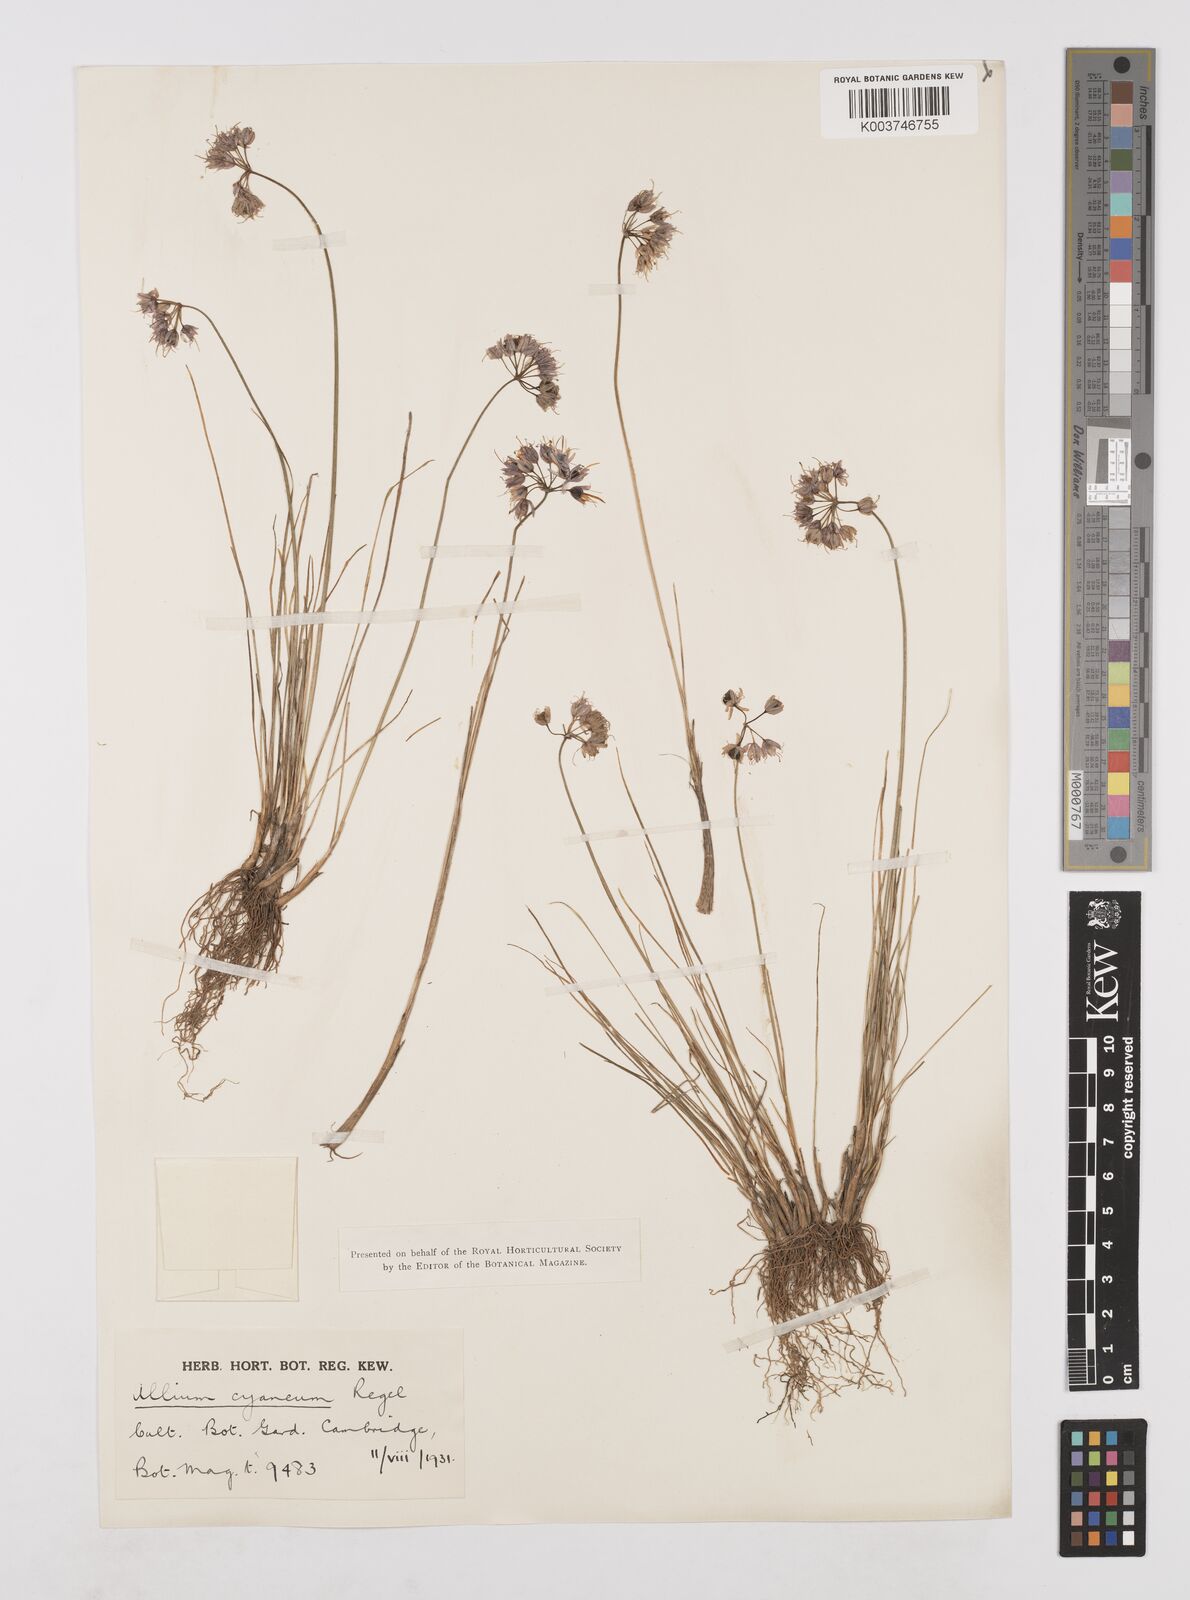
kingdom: Plantae
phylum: Tracheophyta
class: Liliopsida
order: Asparagales
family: Amaryllidaceae
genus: Allium
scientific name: Allium cyaneum
